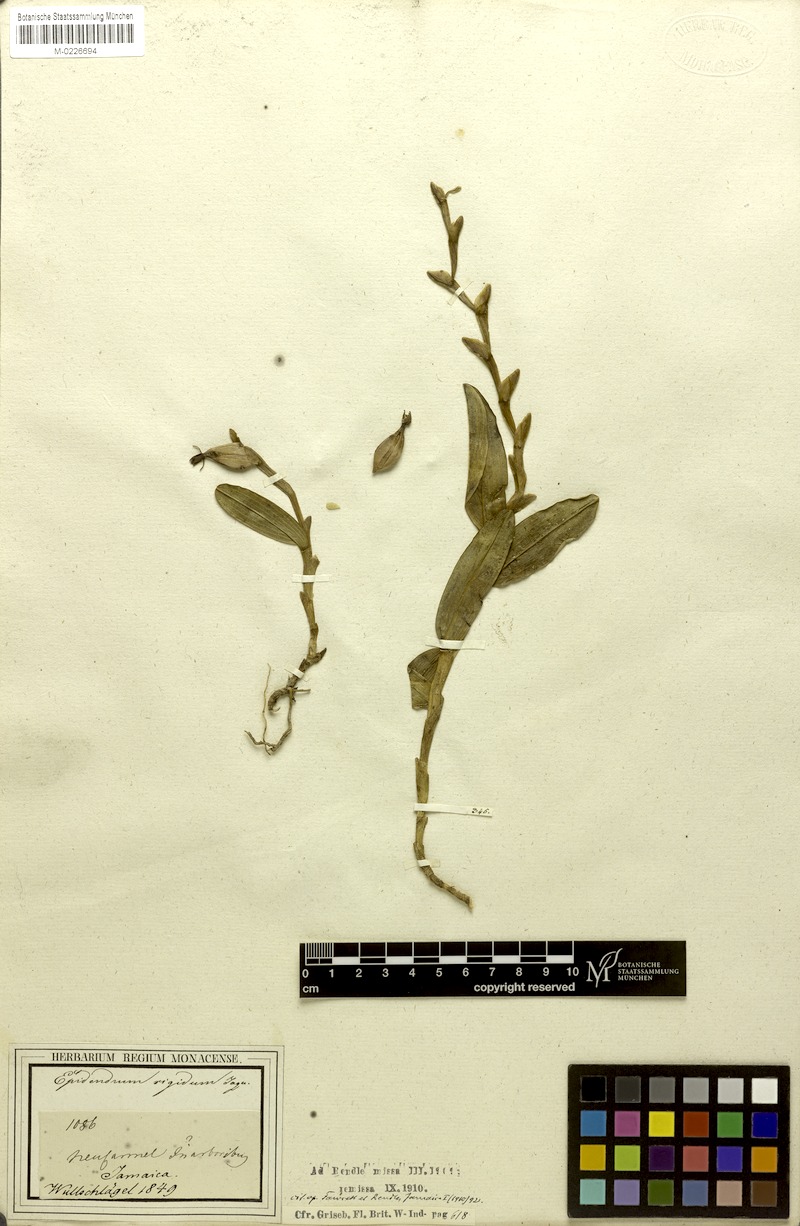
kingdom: Plantae
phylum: Tracheophyta
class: Liliopsida
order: Asparagales
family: Orchidaceae
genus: Epidendrum
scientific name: Epidendrum rigidum
